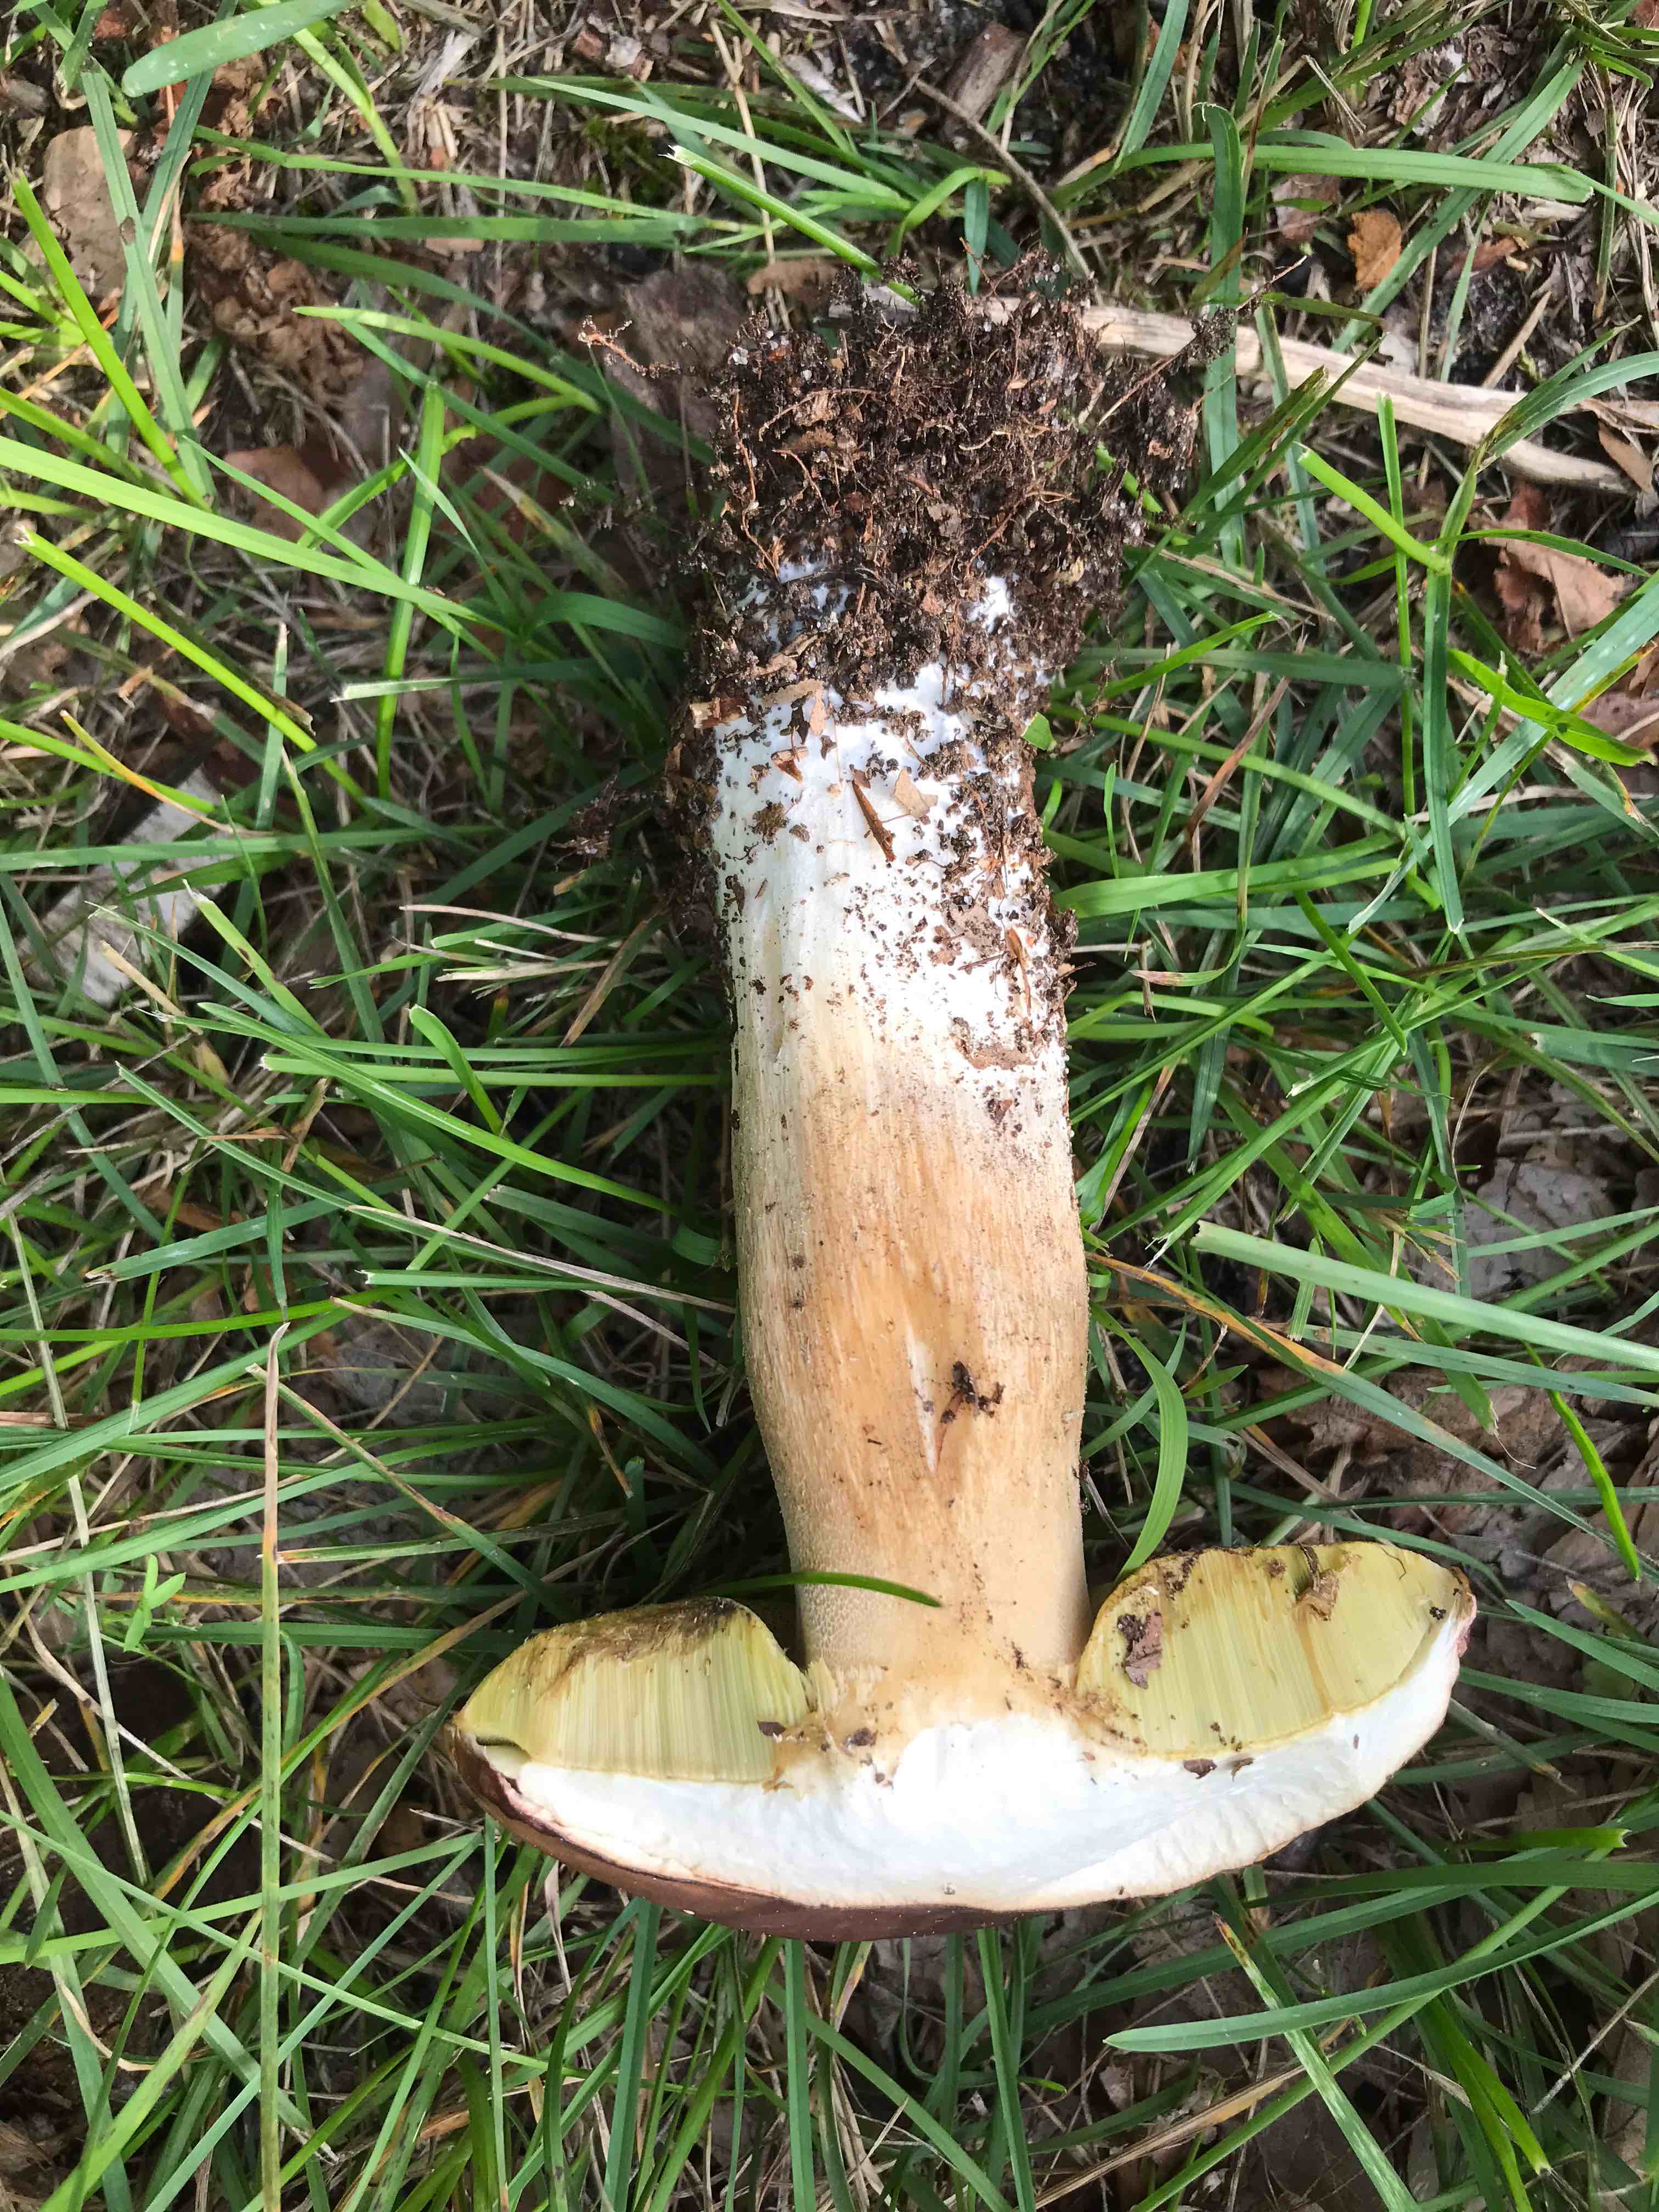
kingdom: Fungi
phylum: Basidiomycota
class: Agaricomycetes
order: Boletales
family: Boletaceae
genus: Boletus
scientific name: Boletus edulis
